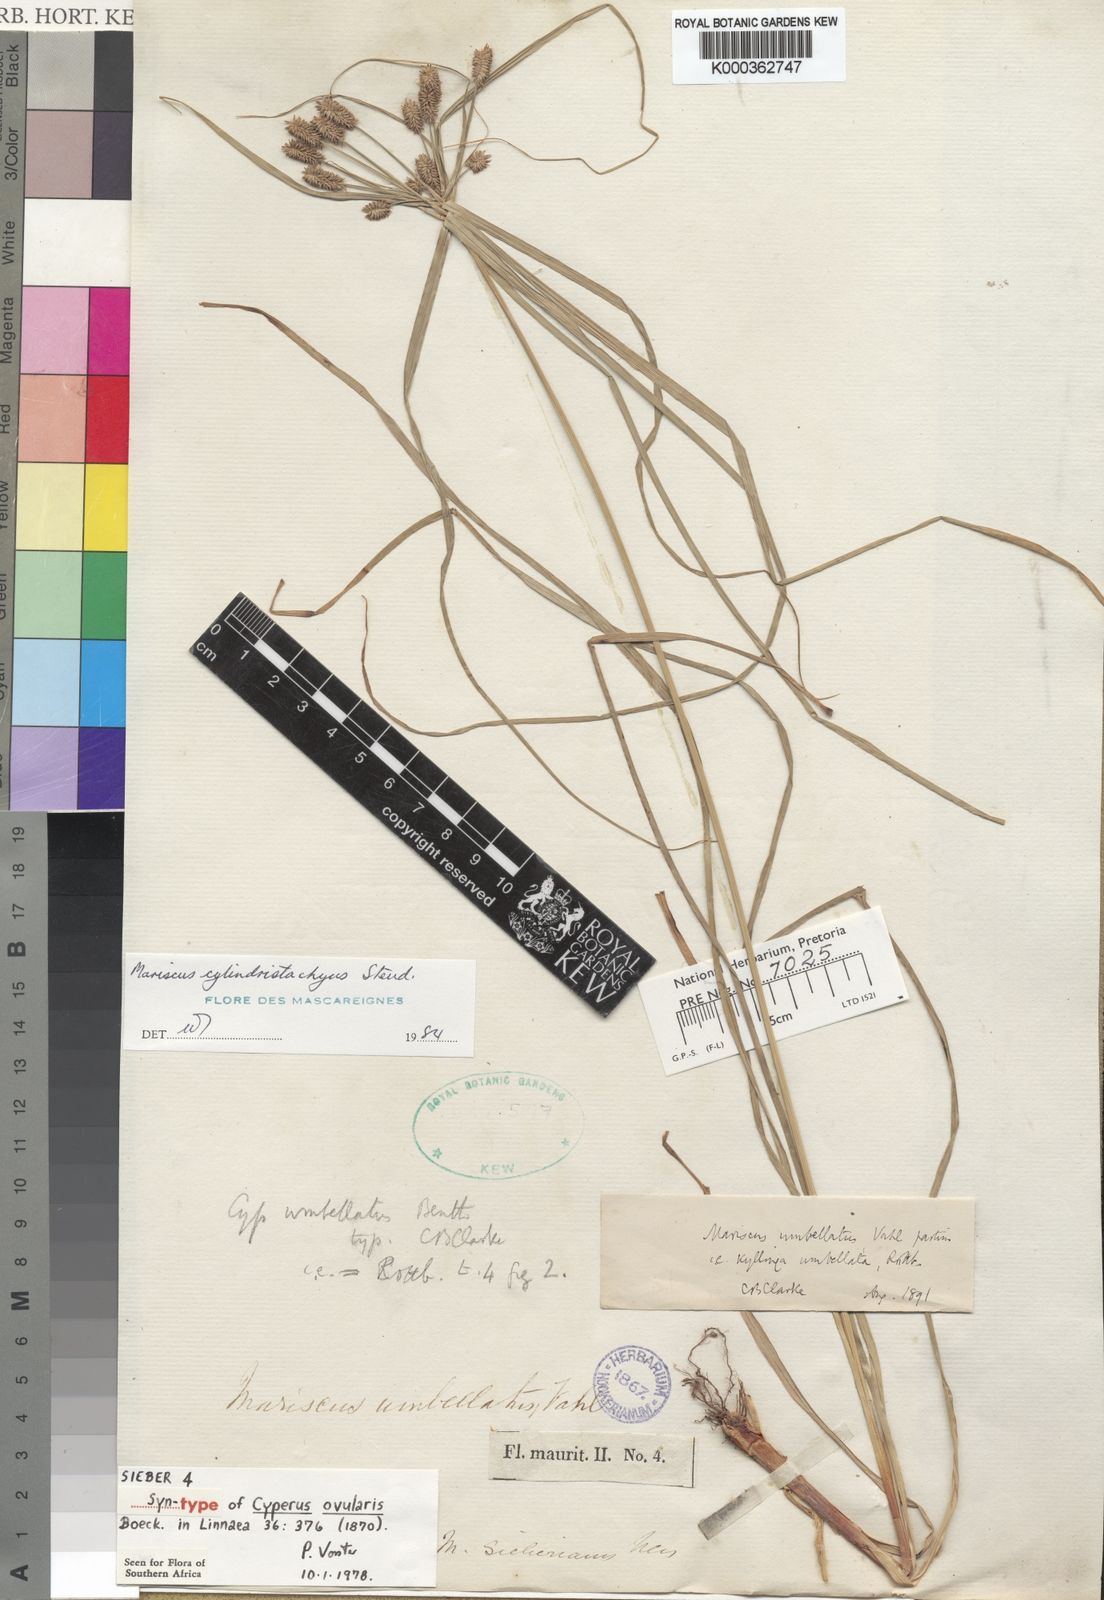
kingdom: Plantae
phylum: Tracheophyta
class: Liliopsida
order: Poales
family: Cyperaceae
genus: Cyperus
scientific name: Cyperus
